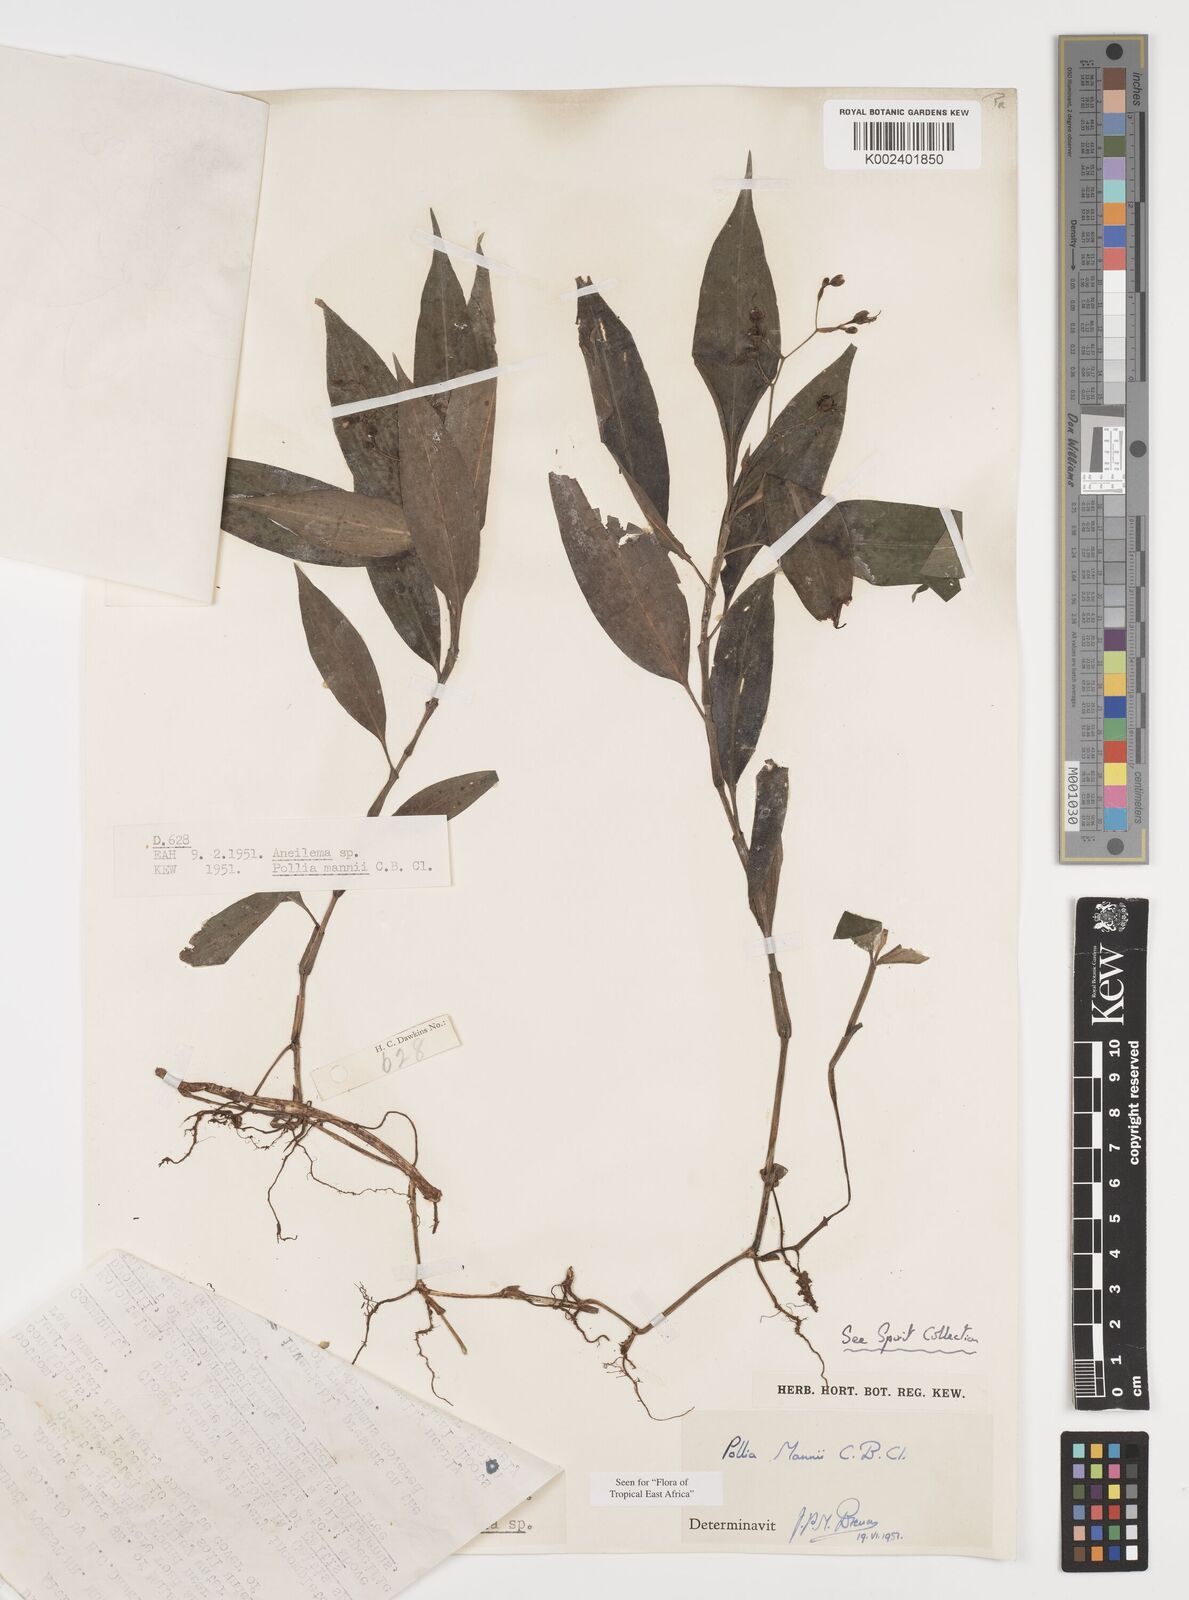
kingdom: Plantae
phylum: Tracheophyta
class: Liliopsida
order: Commelinales
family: Commelinaceae
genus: Pollia
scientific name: Pollia mannii
